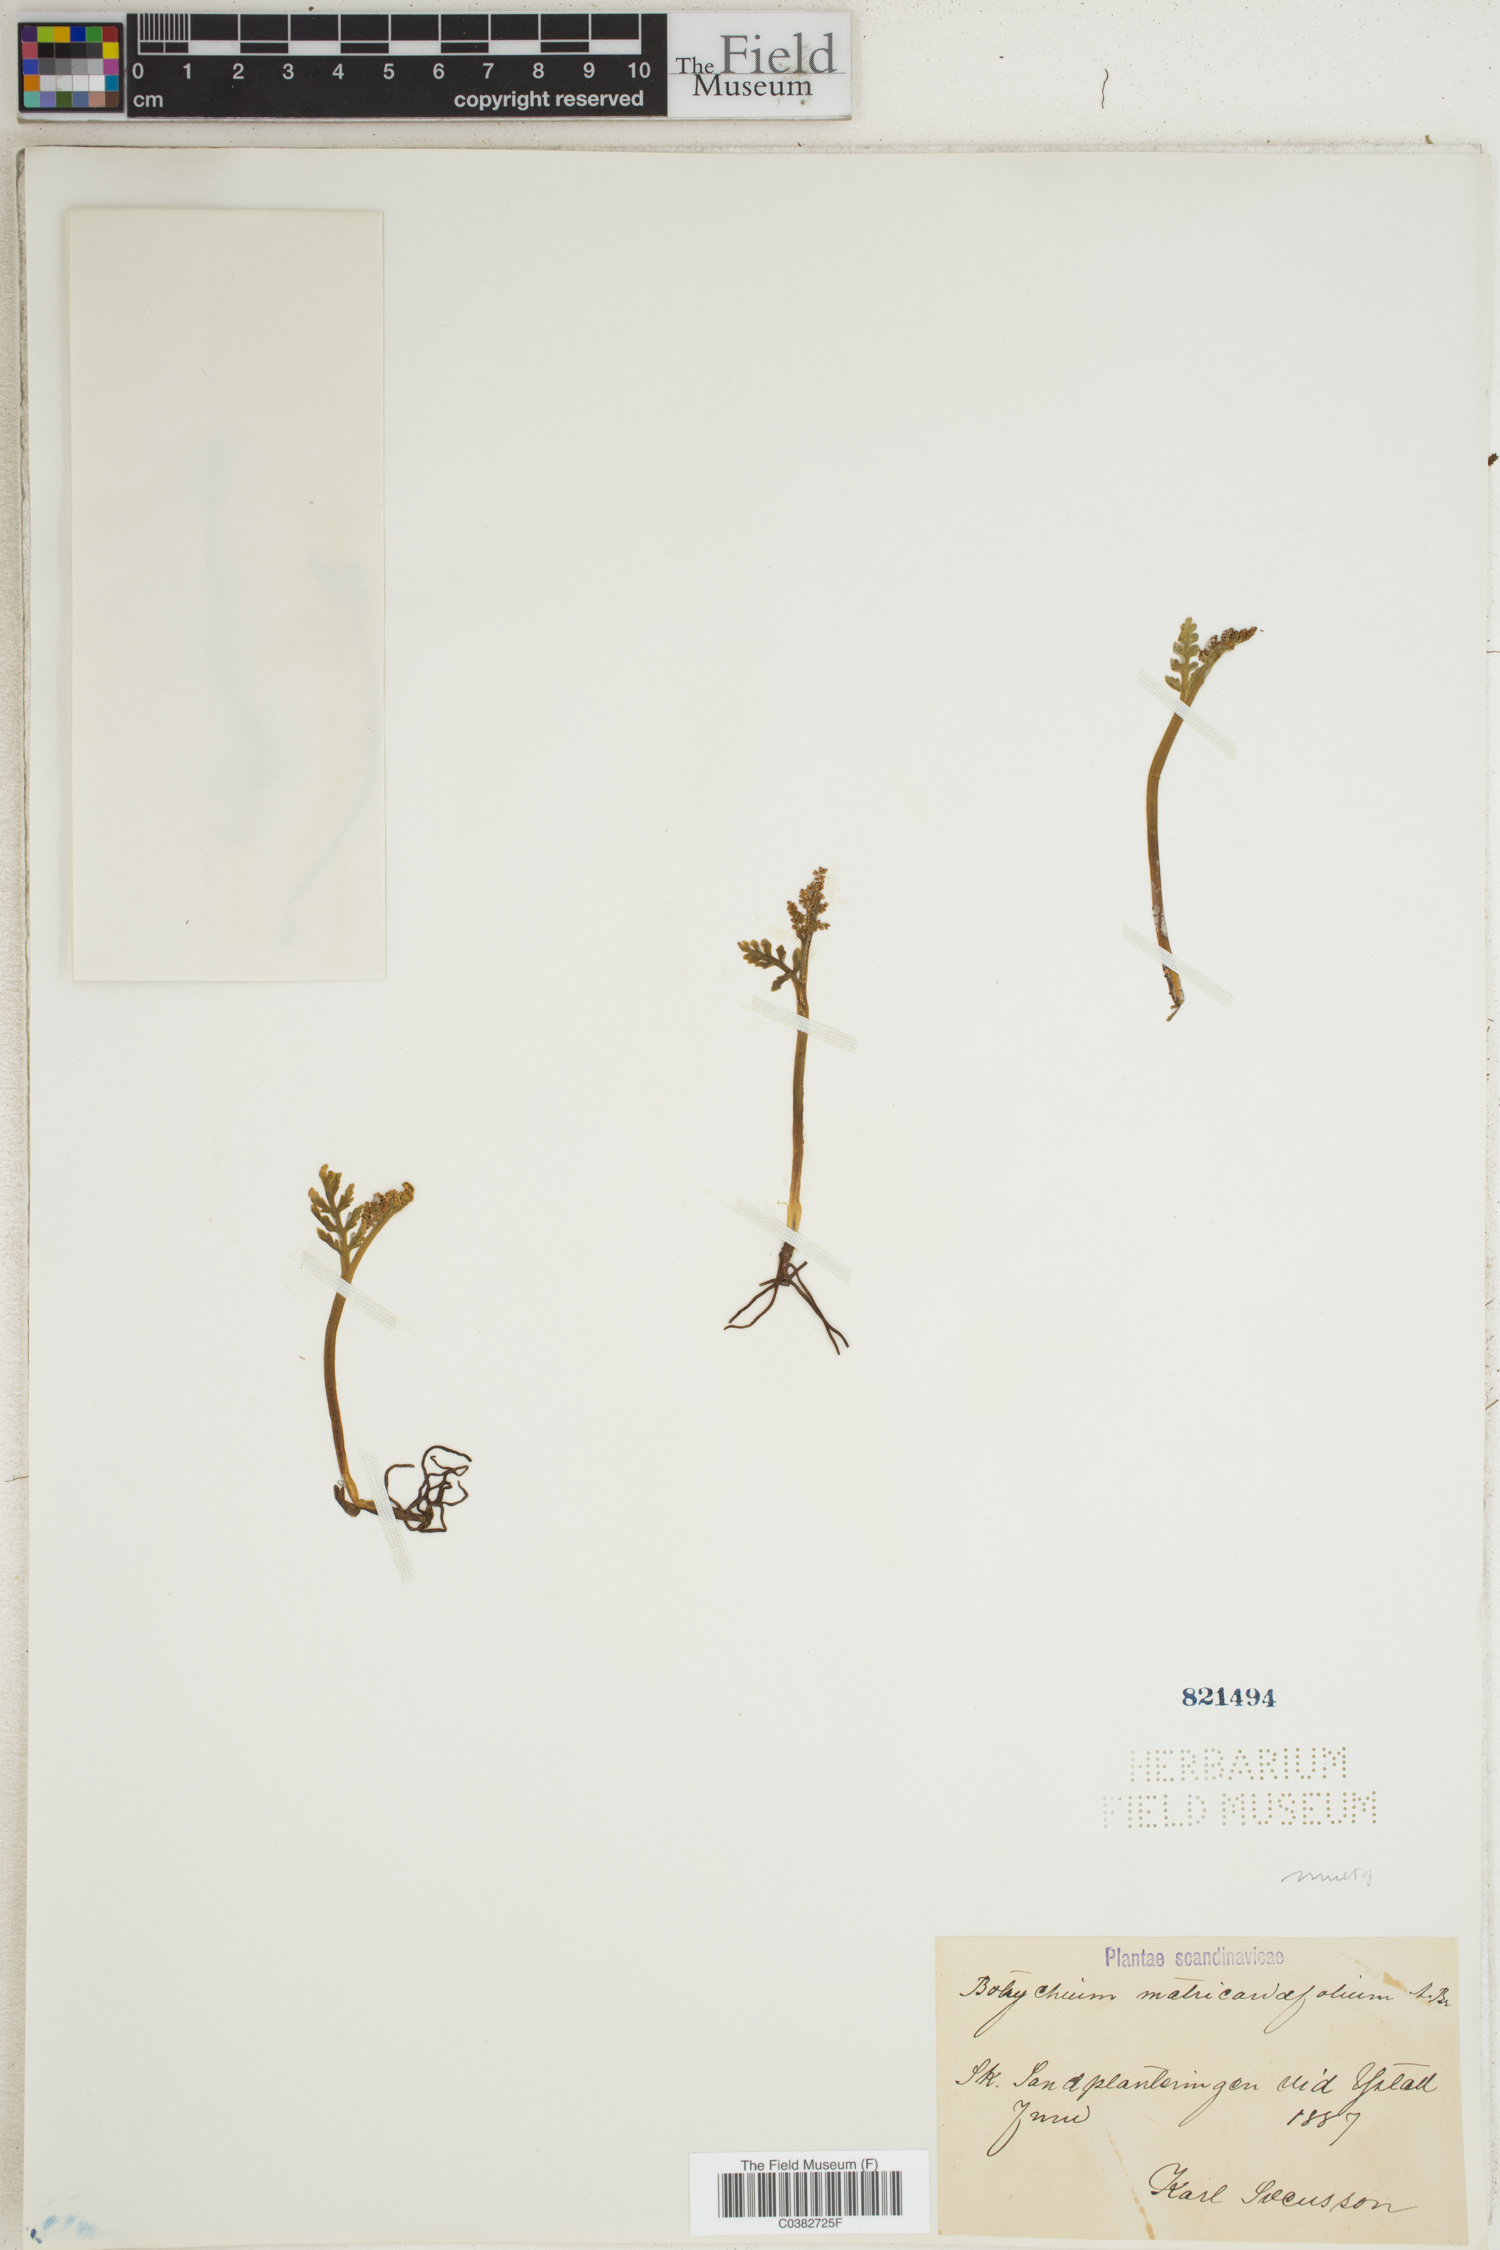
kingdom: Plantae
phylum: Tracheophyta
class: Polypodiopsida
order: Ophioglossales
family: Ophioglossaceae
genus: Botrychium
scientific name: Botrychium matricariifolium
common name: Branched moonwort
